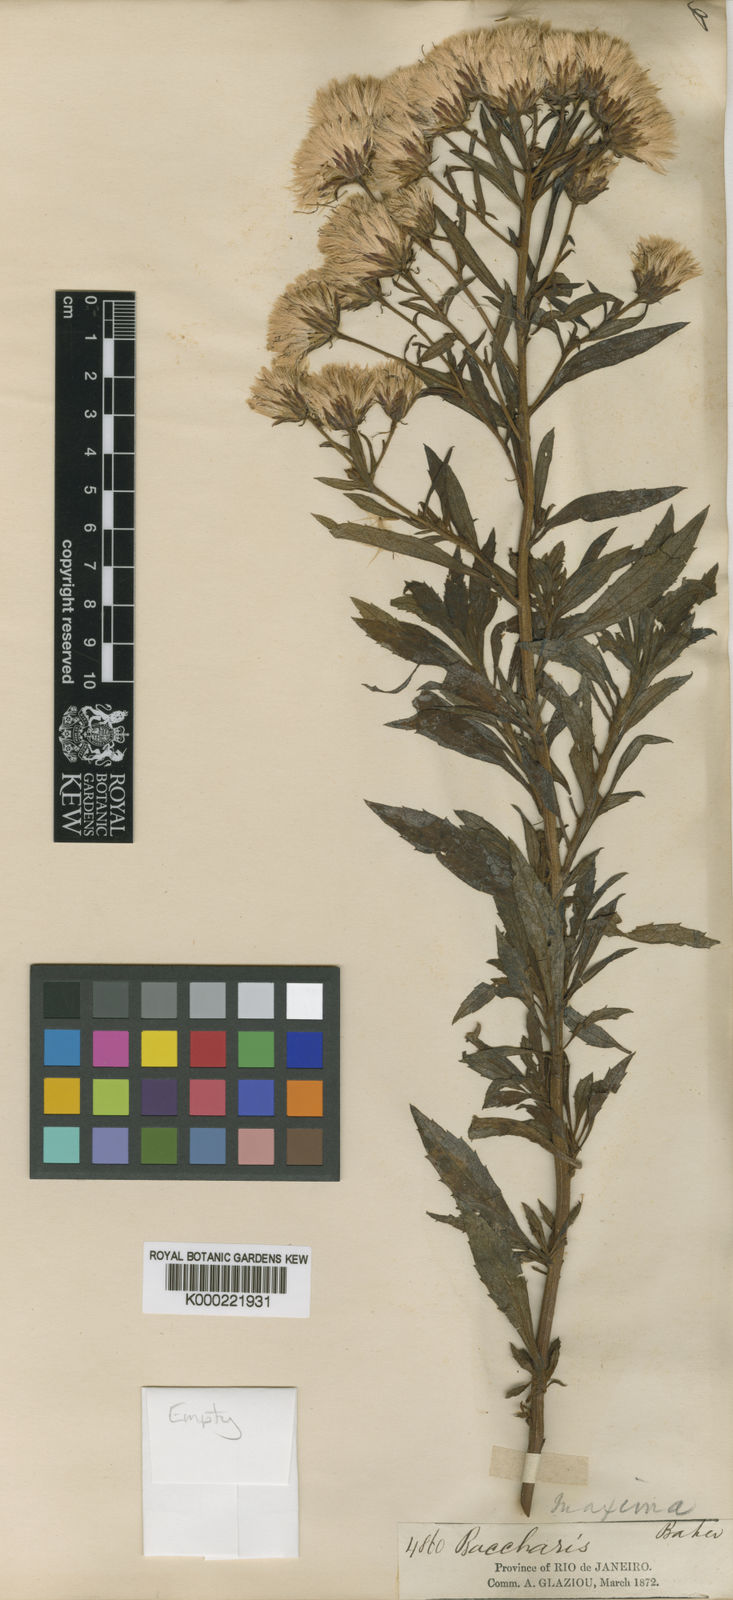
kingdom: Plantae
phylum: Tracheophyta
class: Magnoliopsida
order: Asterales
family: Asteraceae
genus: Baccharis
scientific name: Baccharis maxima
